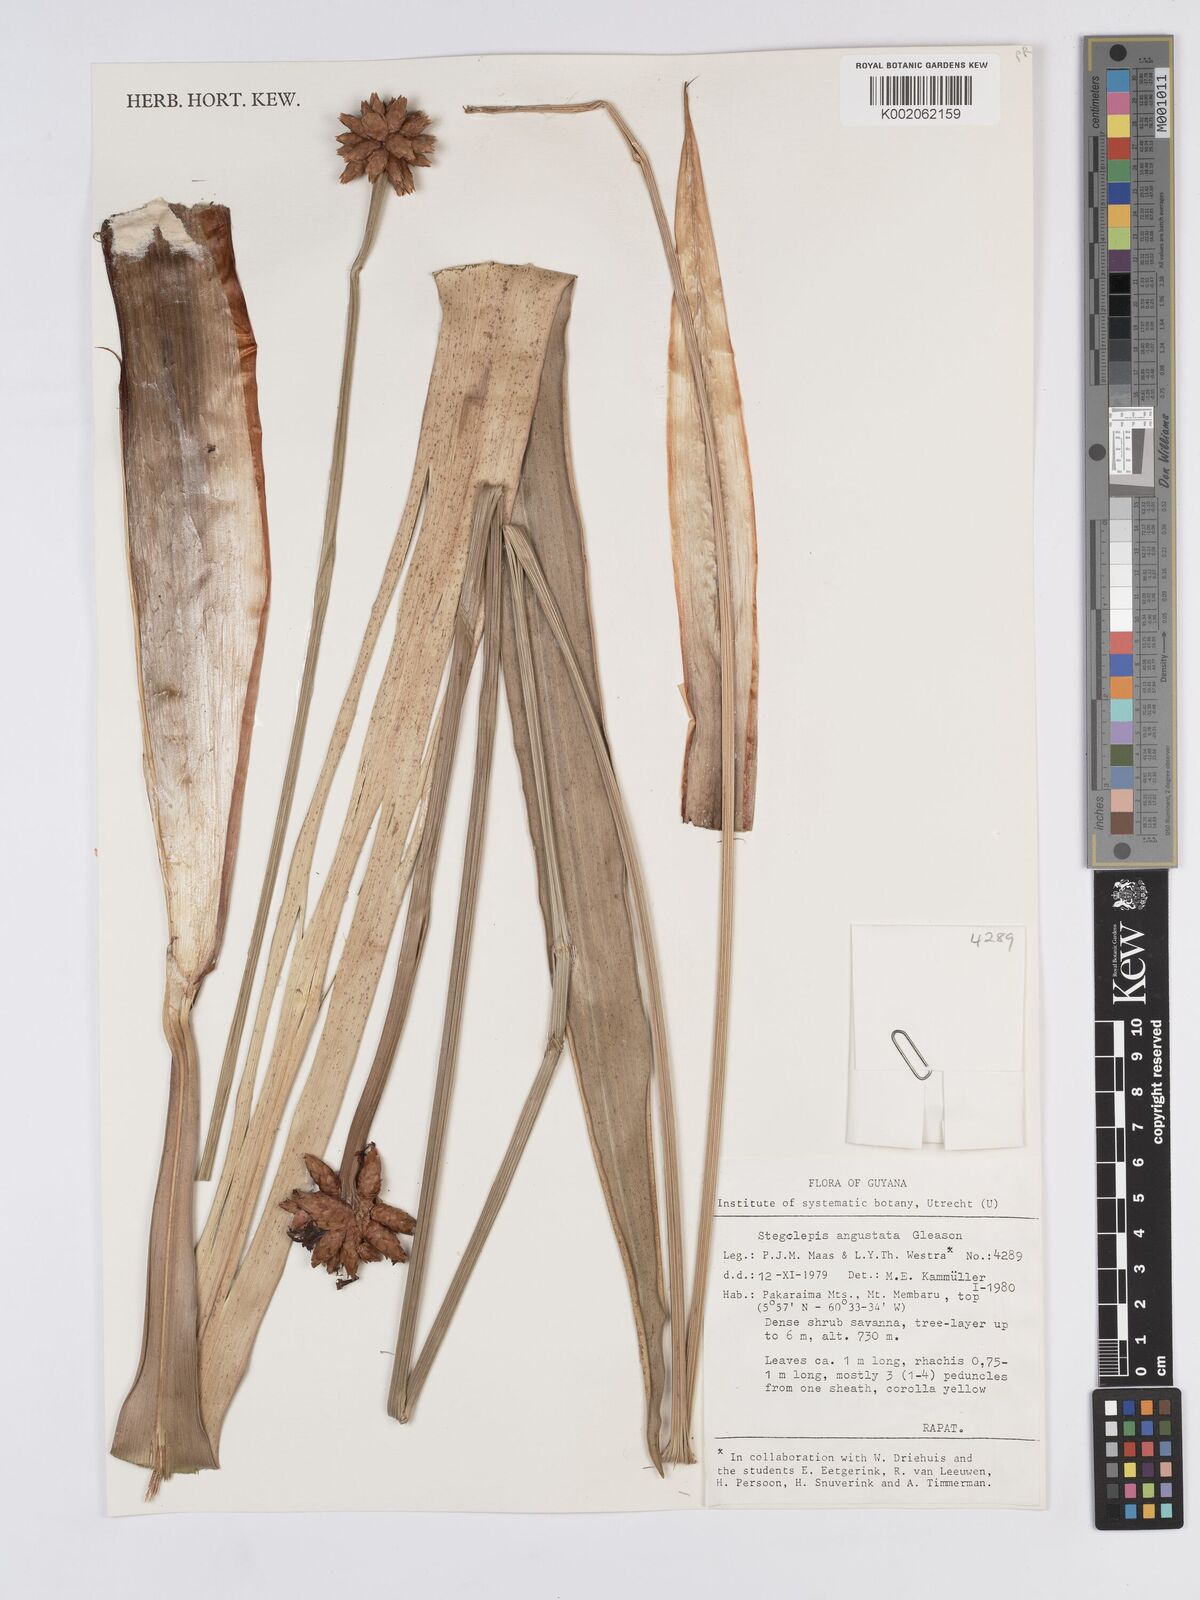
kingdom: Plantae
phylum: Tracheophyta
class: Liliopsida
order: Poales
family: Rapateaceae
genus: Stegolepis
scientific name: Stegolepis angustata
